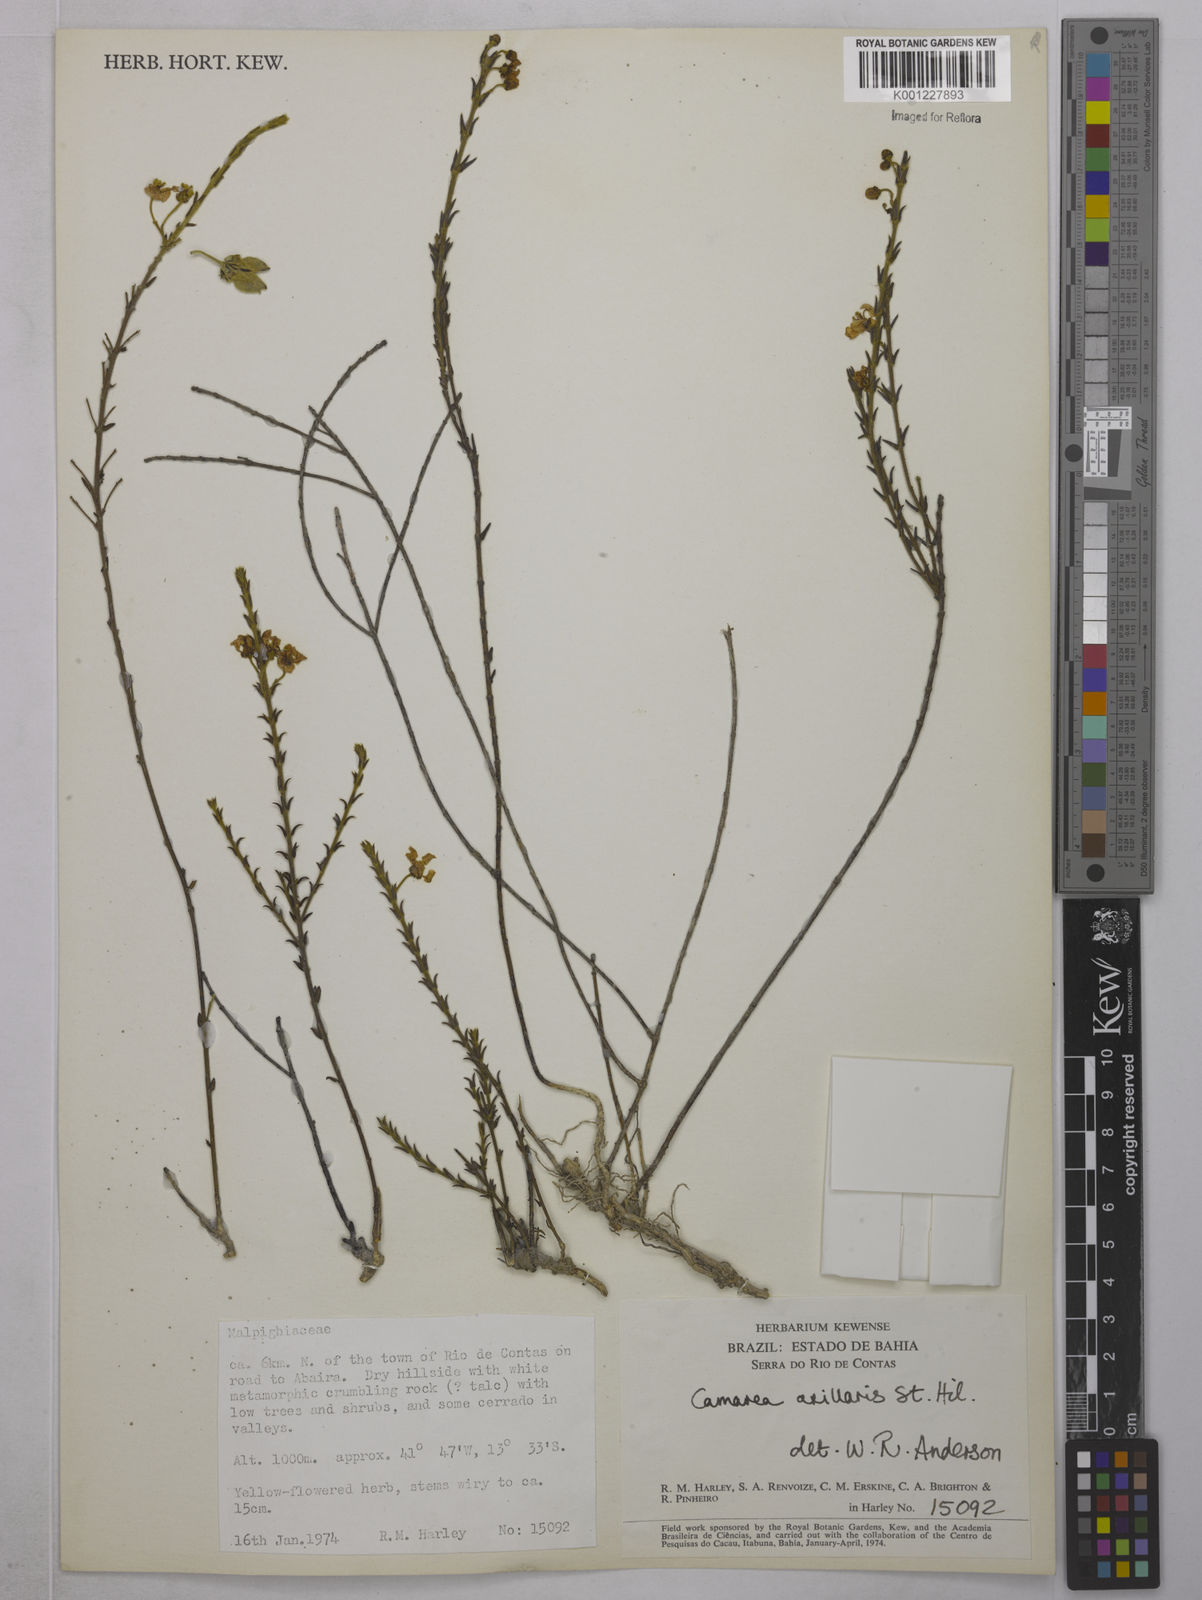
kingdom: Plantae
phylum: Tracheophyta
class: Magnoliopsida
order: Malpighiales
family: Malpighiaceae
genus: Camarea
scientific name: Camarea axillaris
